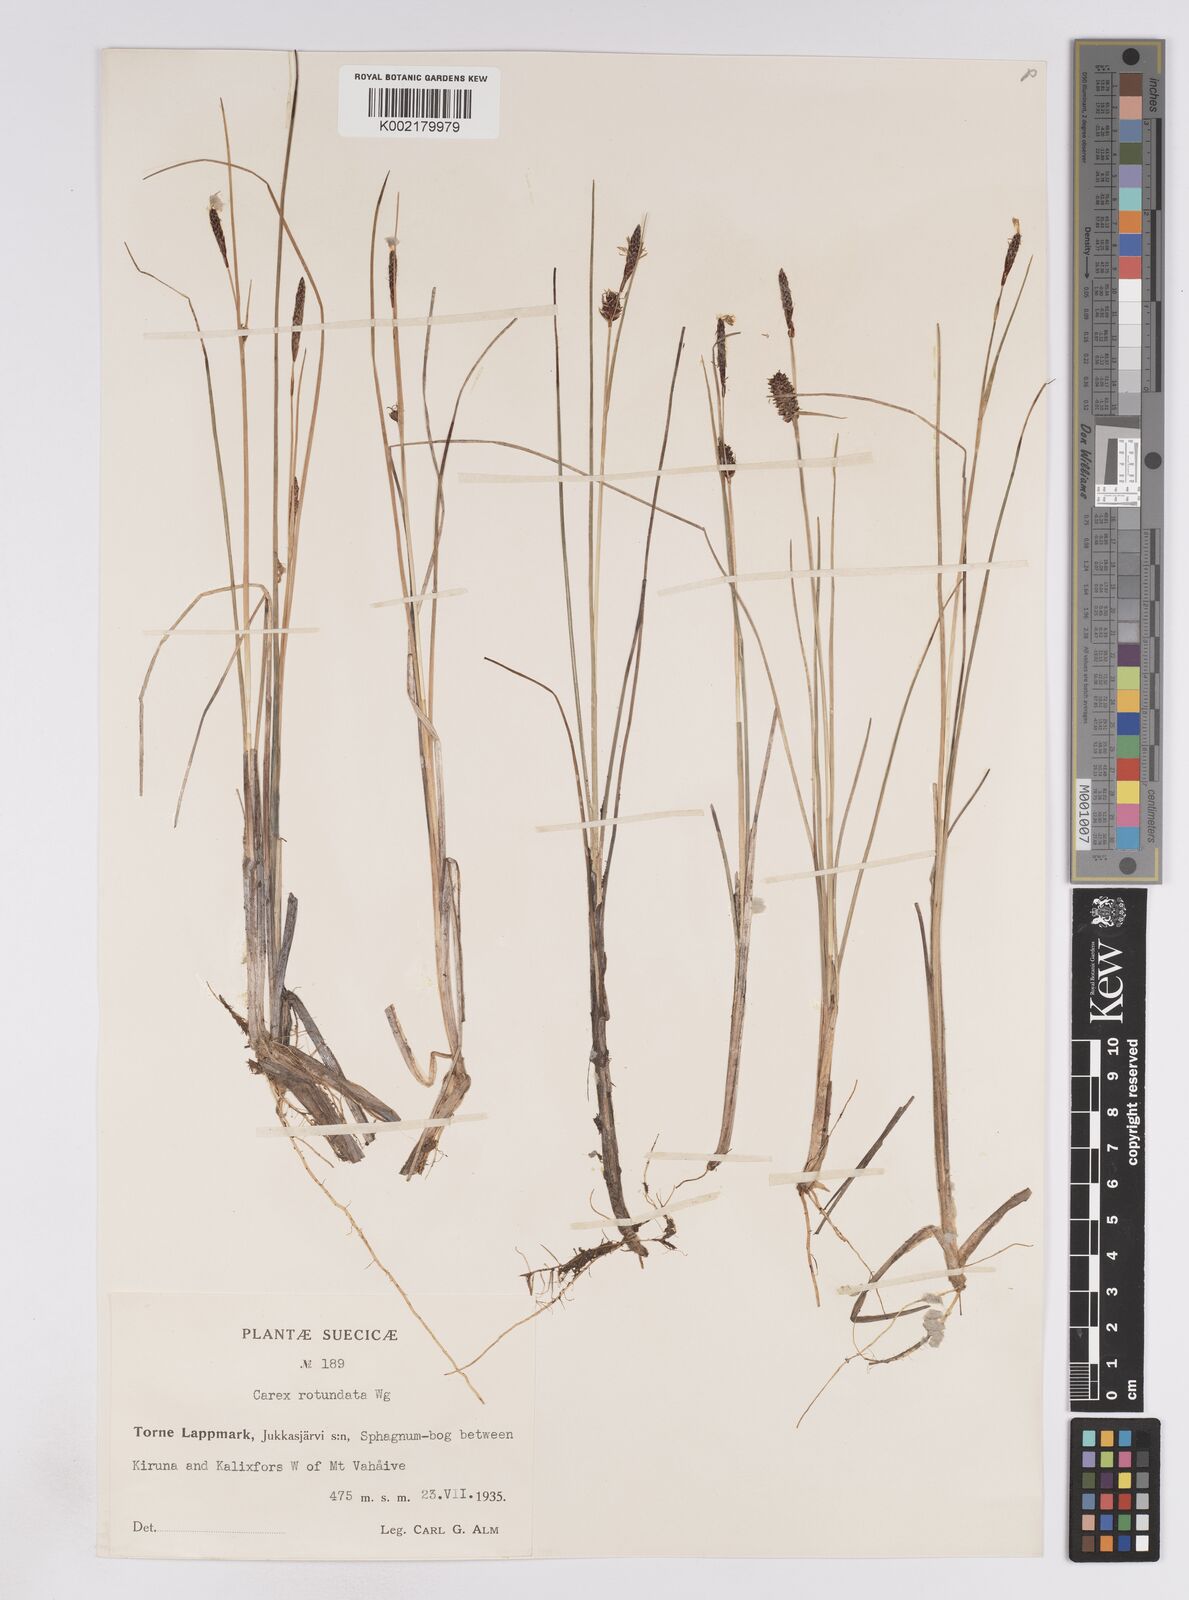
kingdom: Plantae
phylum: Tracheophyta
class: Liliopsida
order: Poales
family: Cyperaceae
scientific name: Cyperaceae
